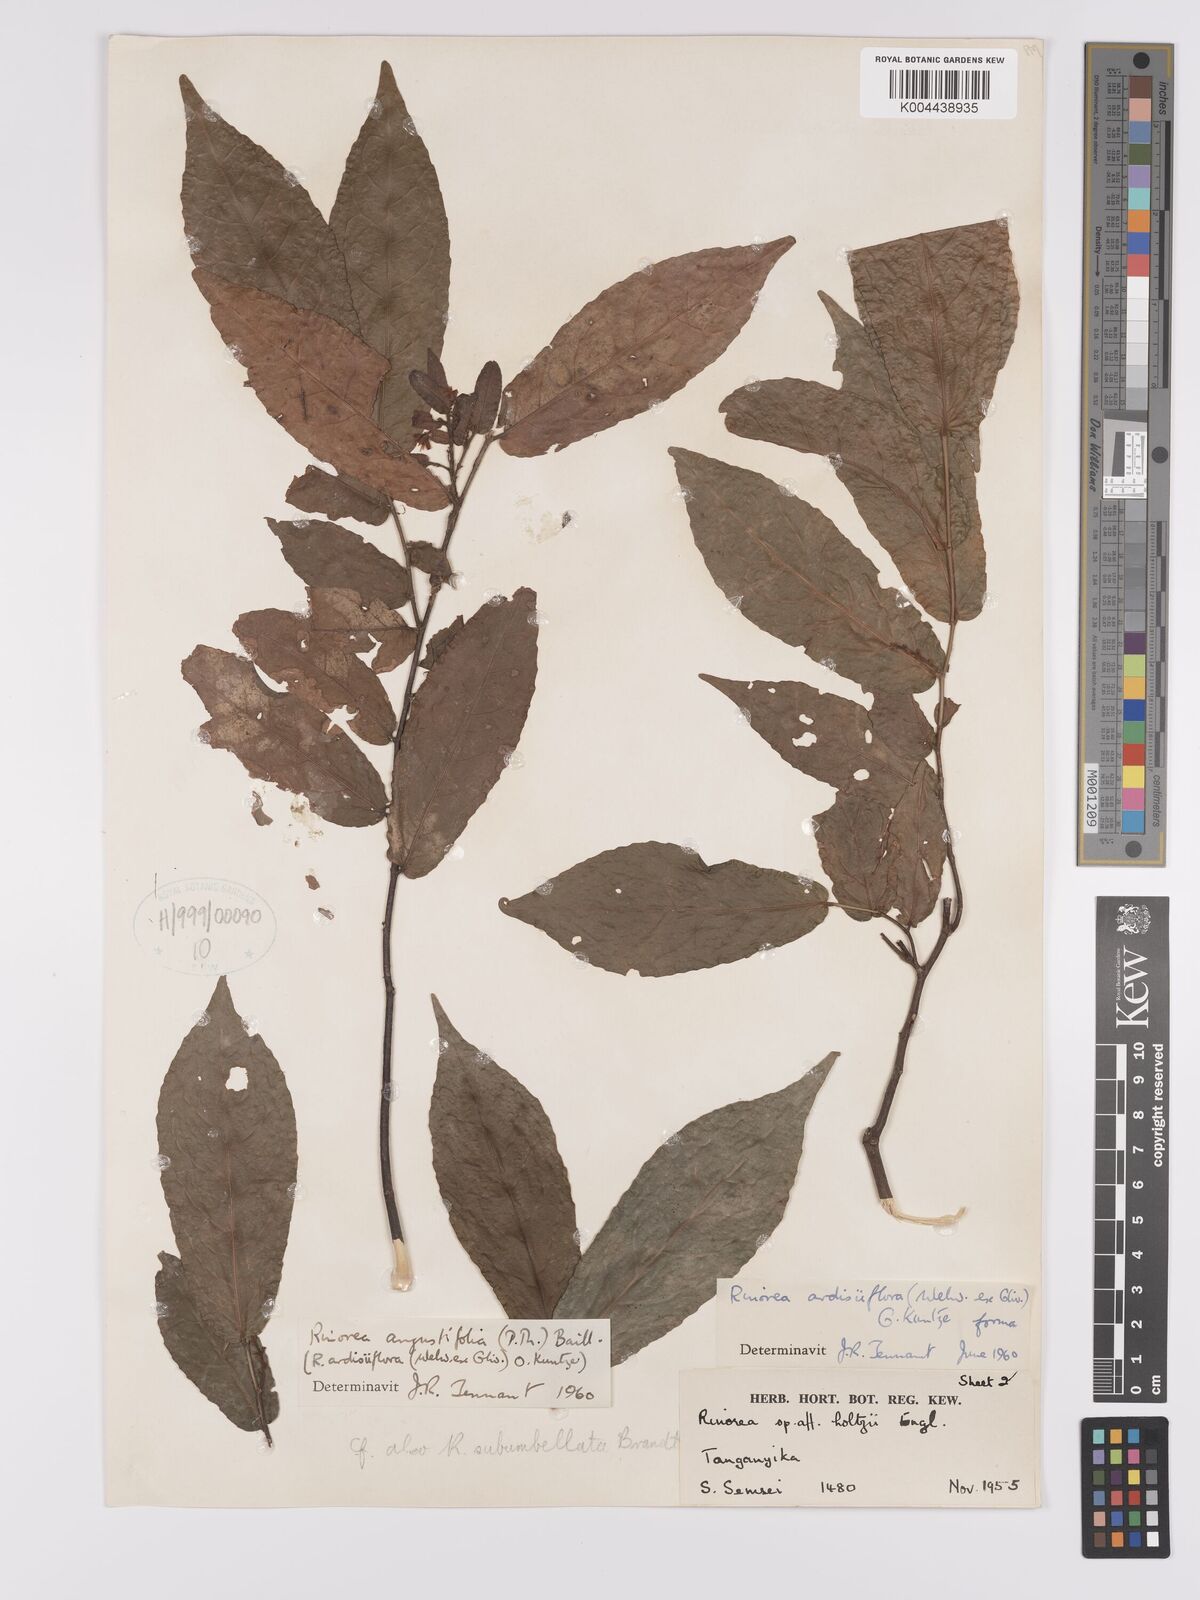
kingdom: Plantae
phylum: Tracheophyta
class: Magnoliopsida
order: Malpighiales
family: Violaceae
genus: Rinorea
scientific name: Rinorea angustifolia
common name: White violet-bush
